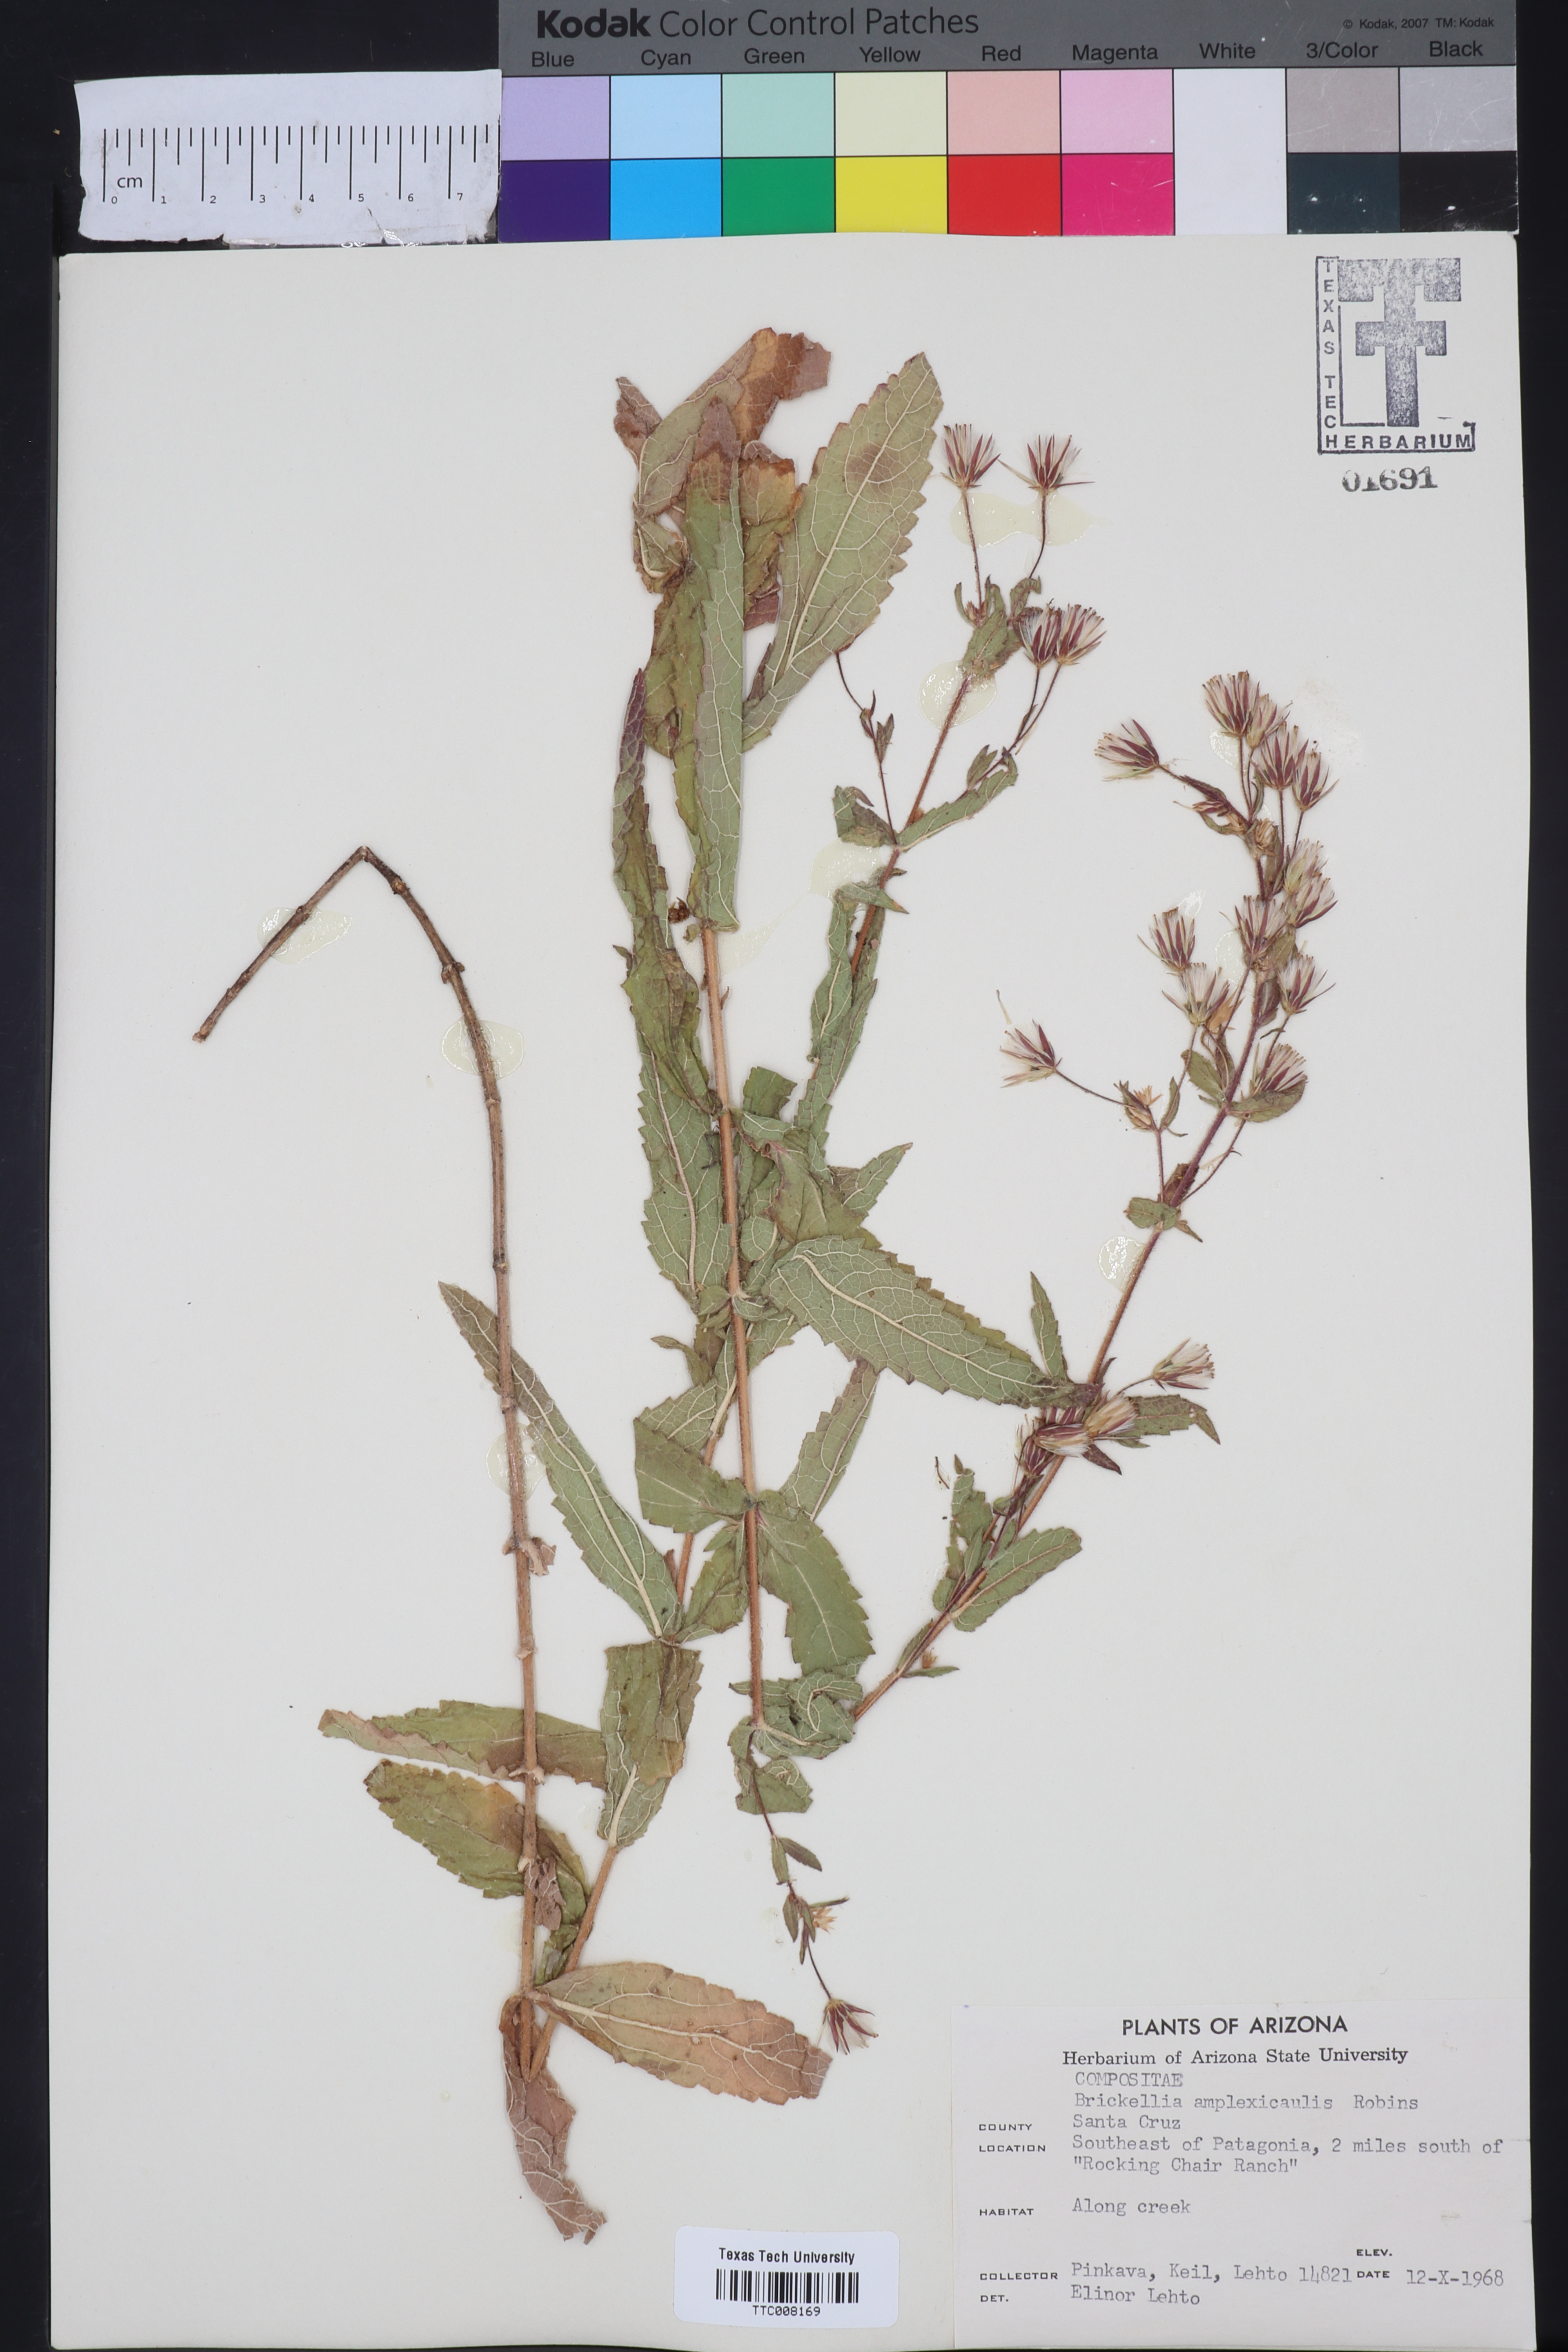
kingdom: Plantae
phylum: Tracheophyta
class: Magnoliopsida
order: Asterales
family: Asteraceae
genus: Brickellia
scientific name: Brickellia amplexicaulis
